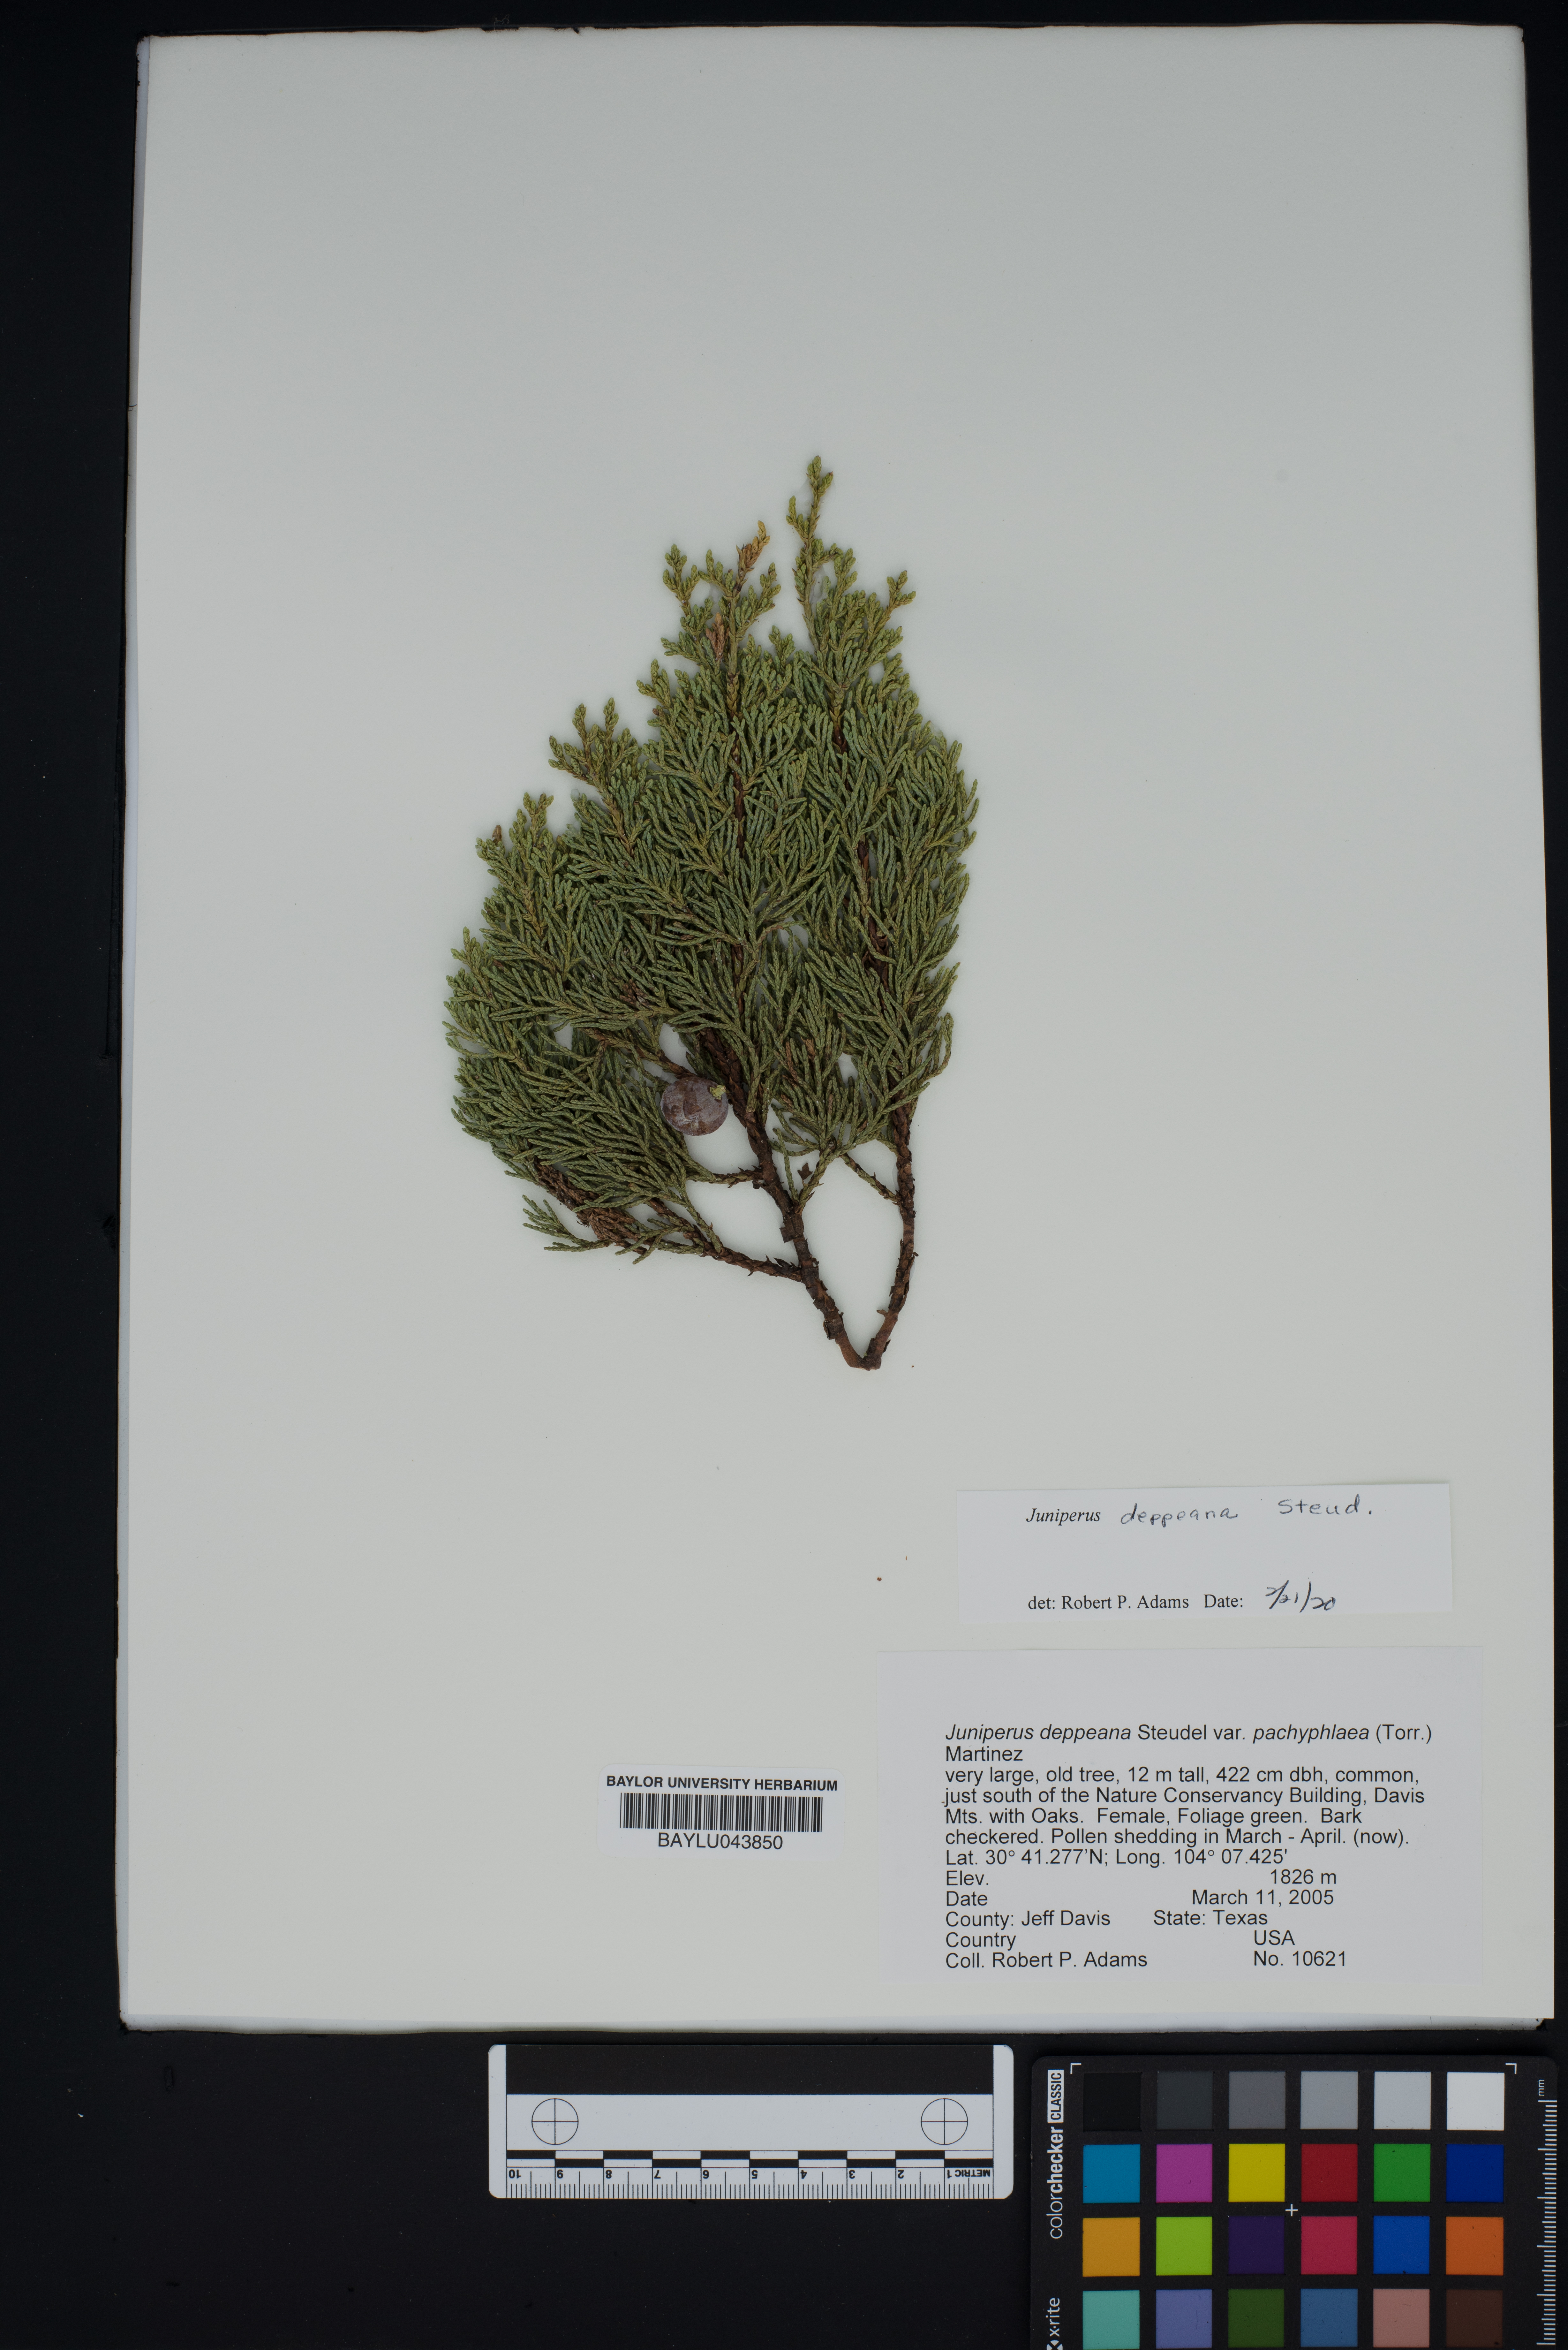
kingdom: Plantae
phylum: Tracheophyta
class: Pinopsida
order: Pinales
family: Cupressaceae
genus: Juniperus
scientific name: Juniperus deppeana
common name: Alligator juniper
